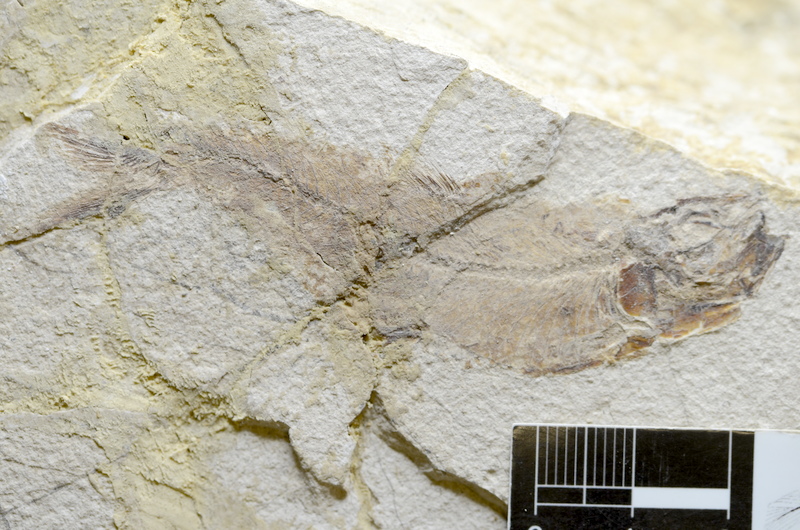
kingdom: Animalia
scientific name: Animalia
